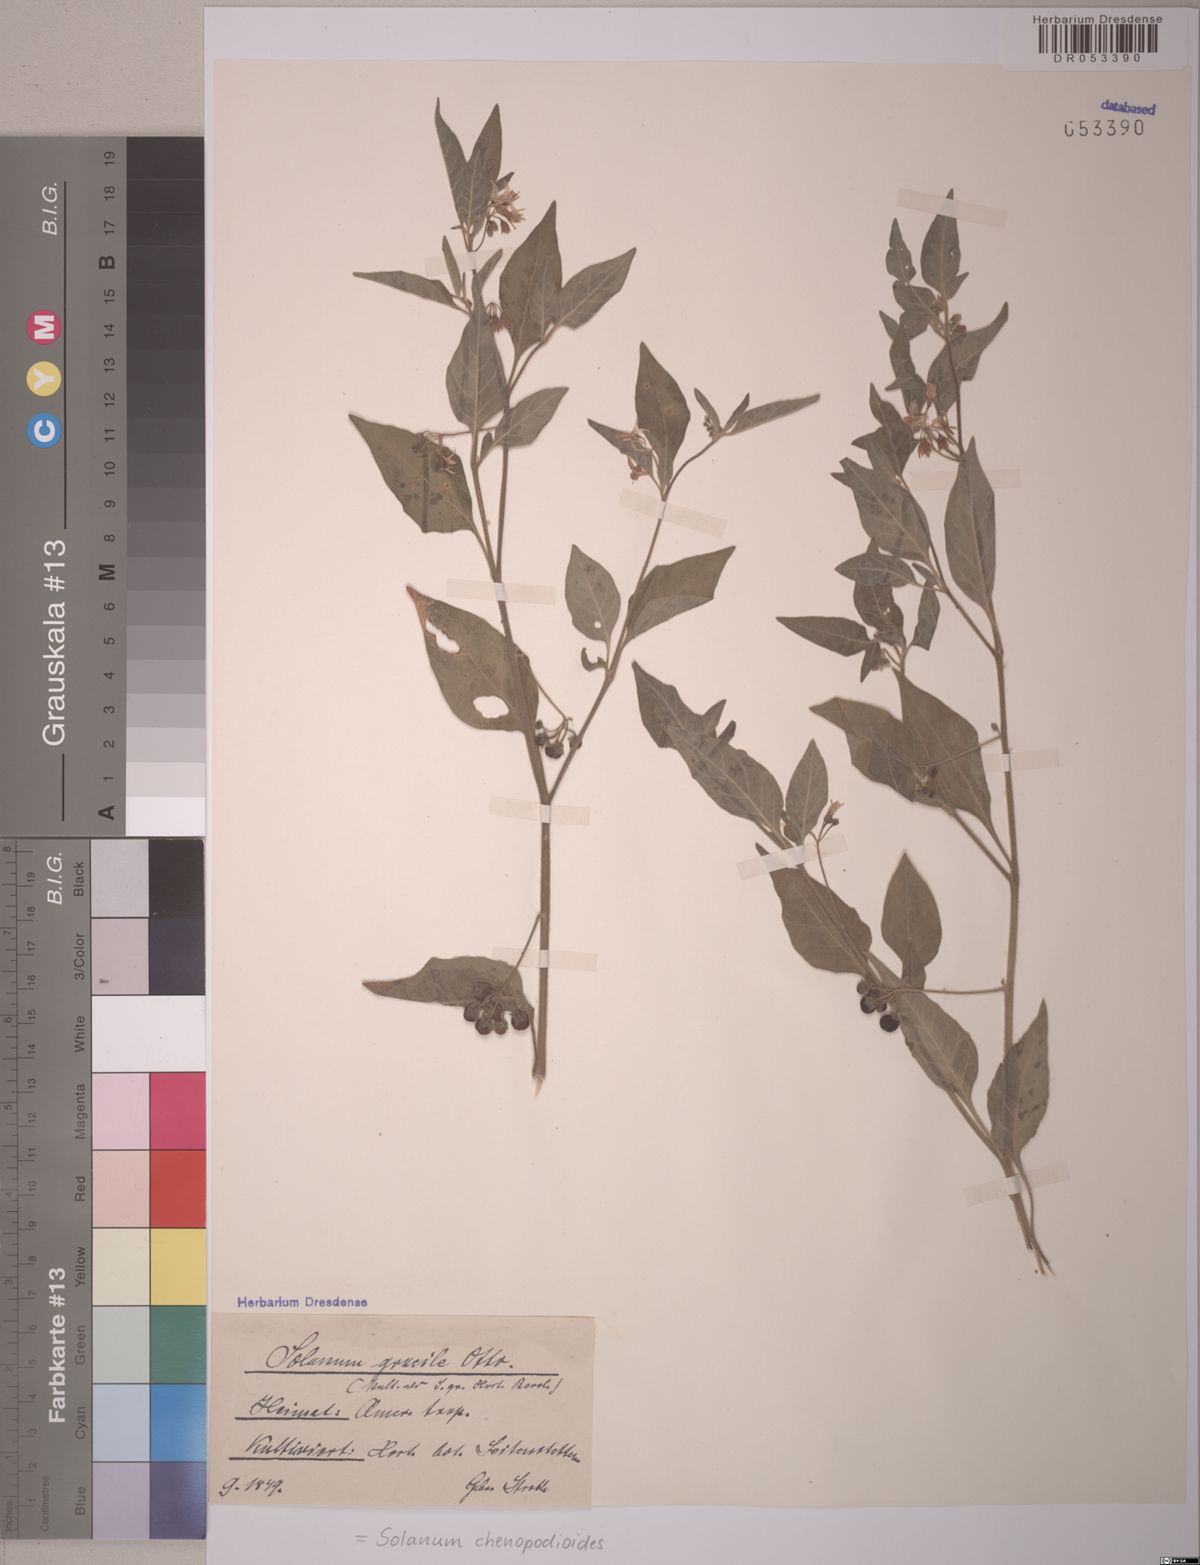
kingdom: Plantae
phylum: Tracheophyta
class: Magnoliopsida
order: Solanales
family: Solanaceae
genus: Solanum
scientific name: Solanum chenopodioides
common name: Tall nightshade
